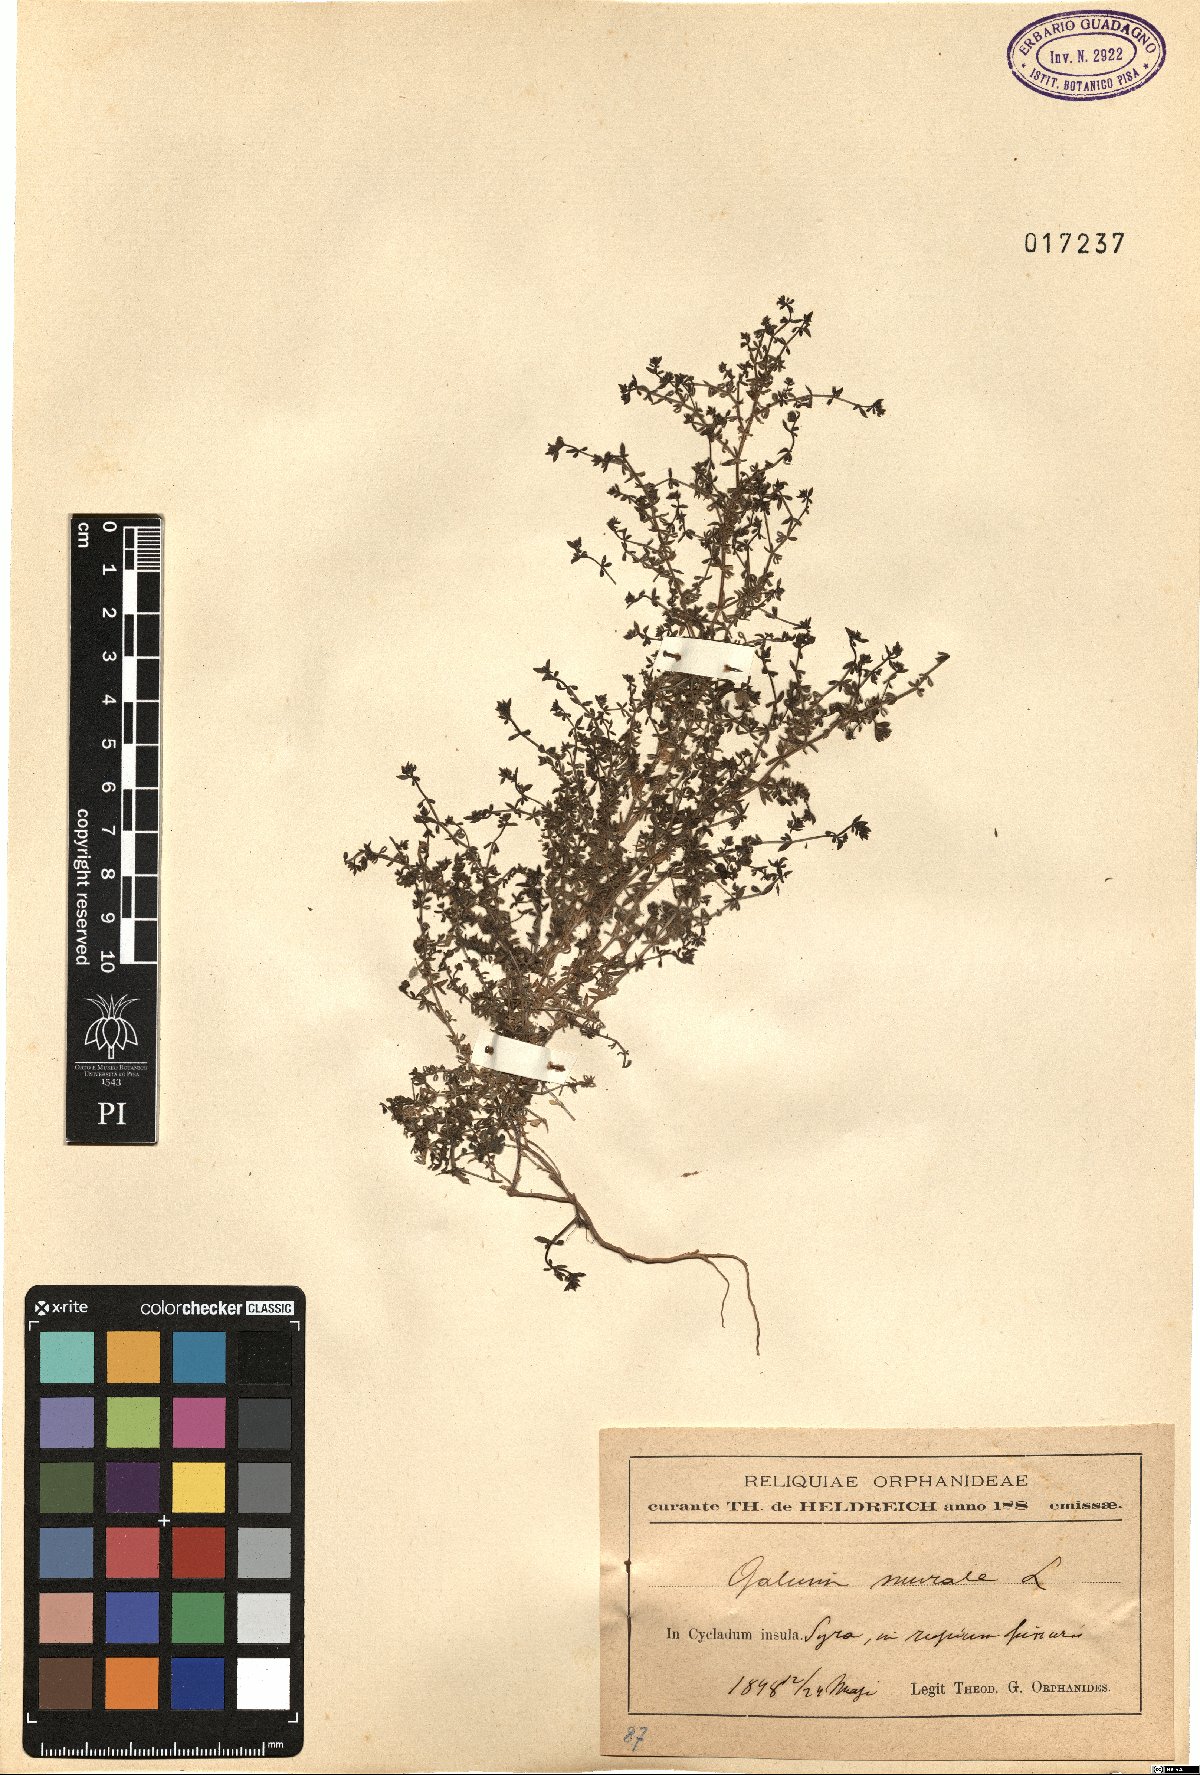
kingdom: Plantae
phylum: Tracheophyta
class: Magnoliopsida
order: Gentianales
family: Rubiaceae
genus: Galium
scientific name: Galium murale
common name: Yellow wall bedstraw
